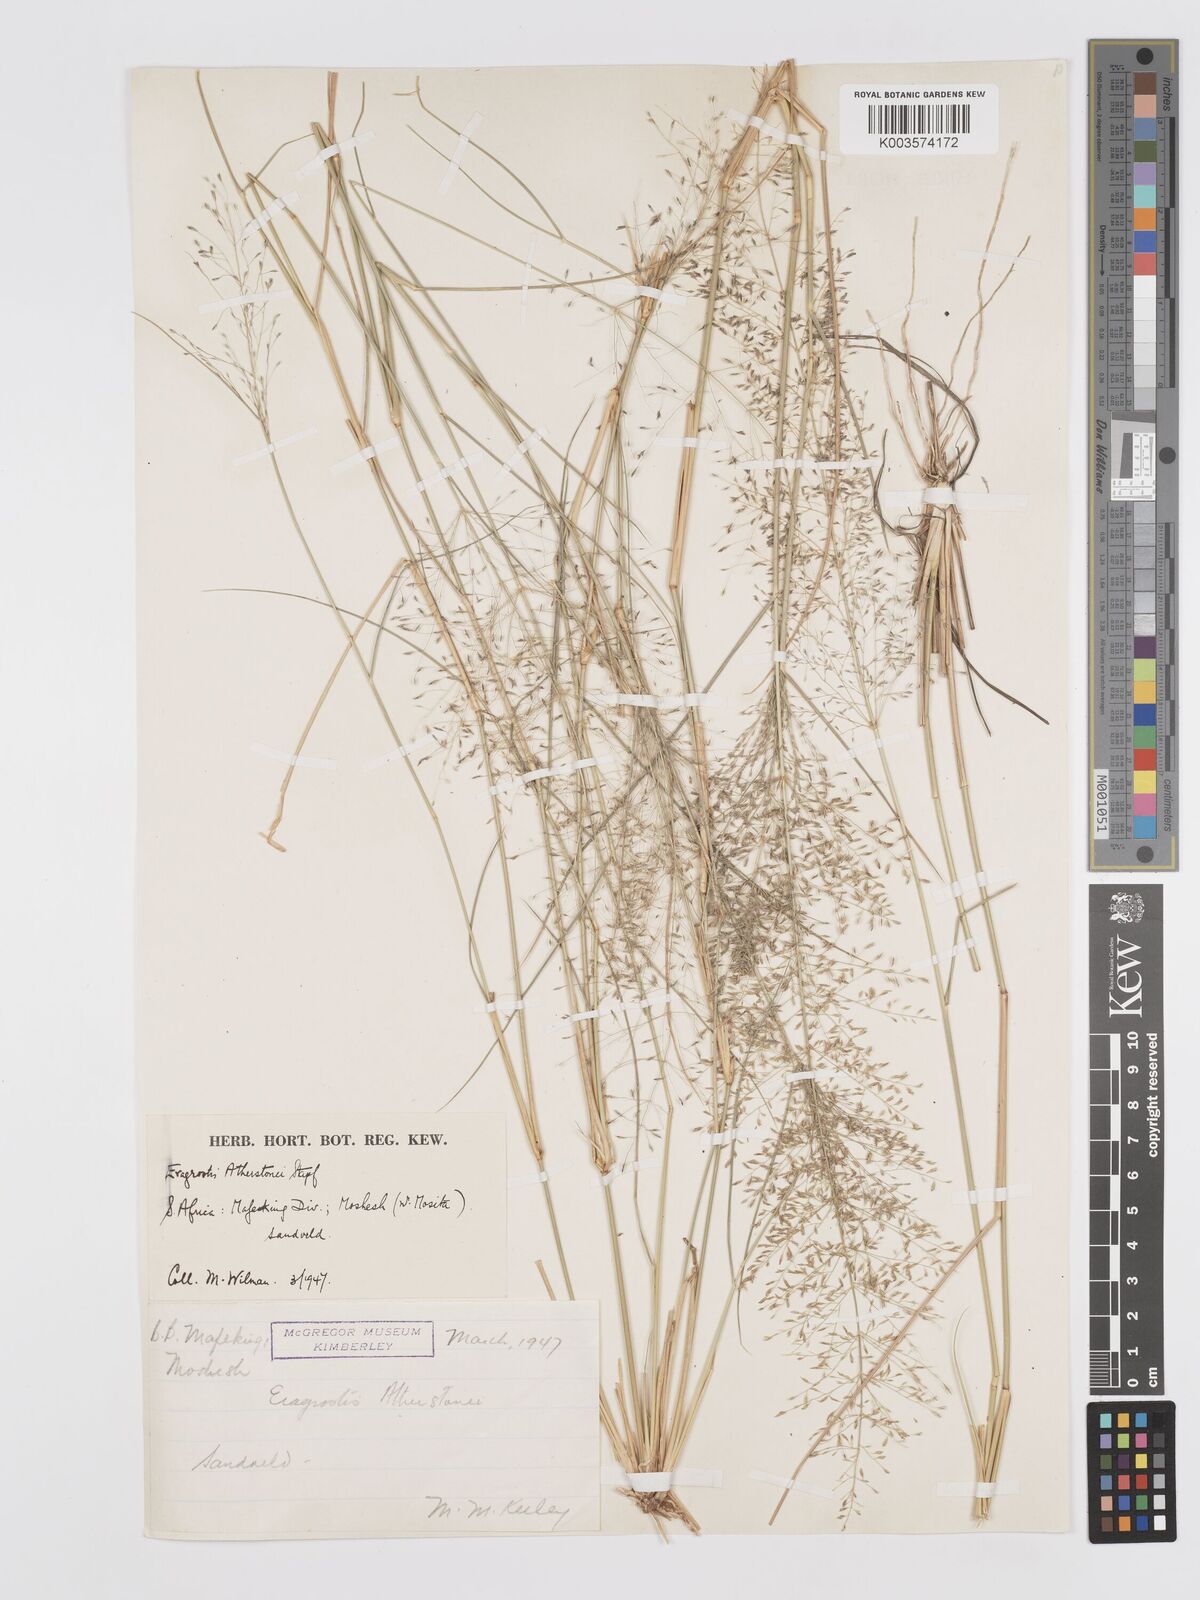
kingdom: Plantae
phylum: Tracheophyta
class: Liliopsida
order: Poales
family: Poaceae
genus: Eragrostis
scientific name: Eragrostis cylindriflora
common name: Cylinderflower lovegrass
